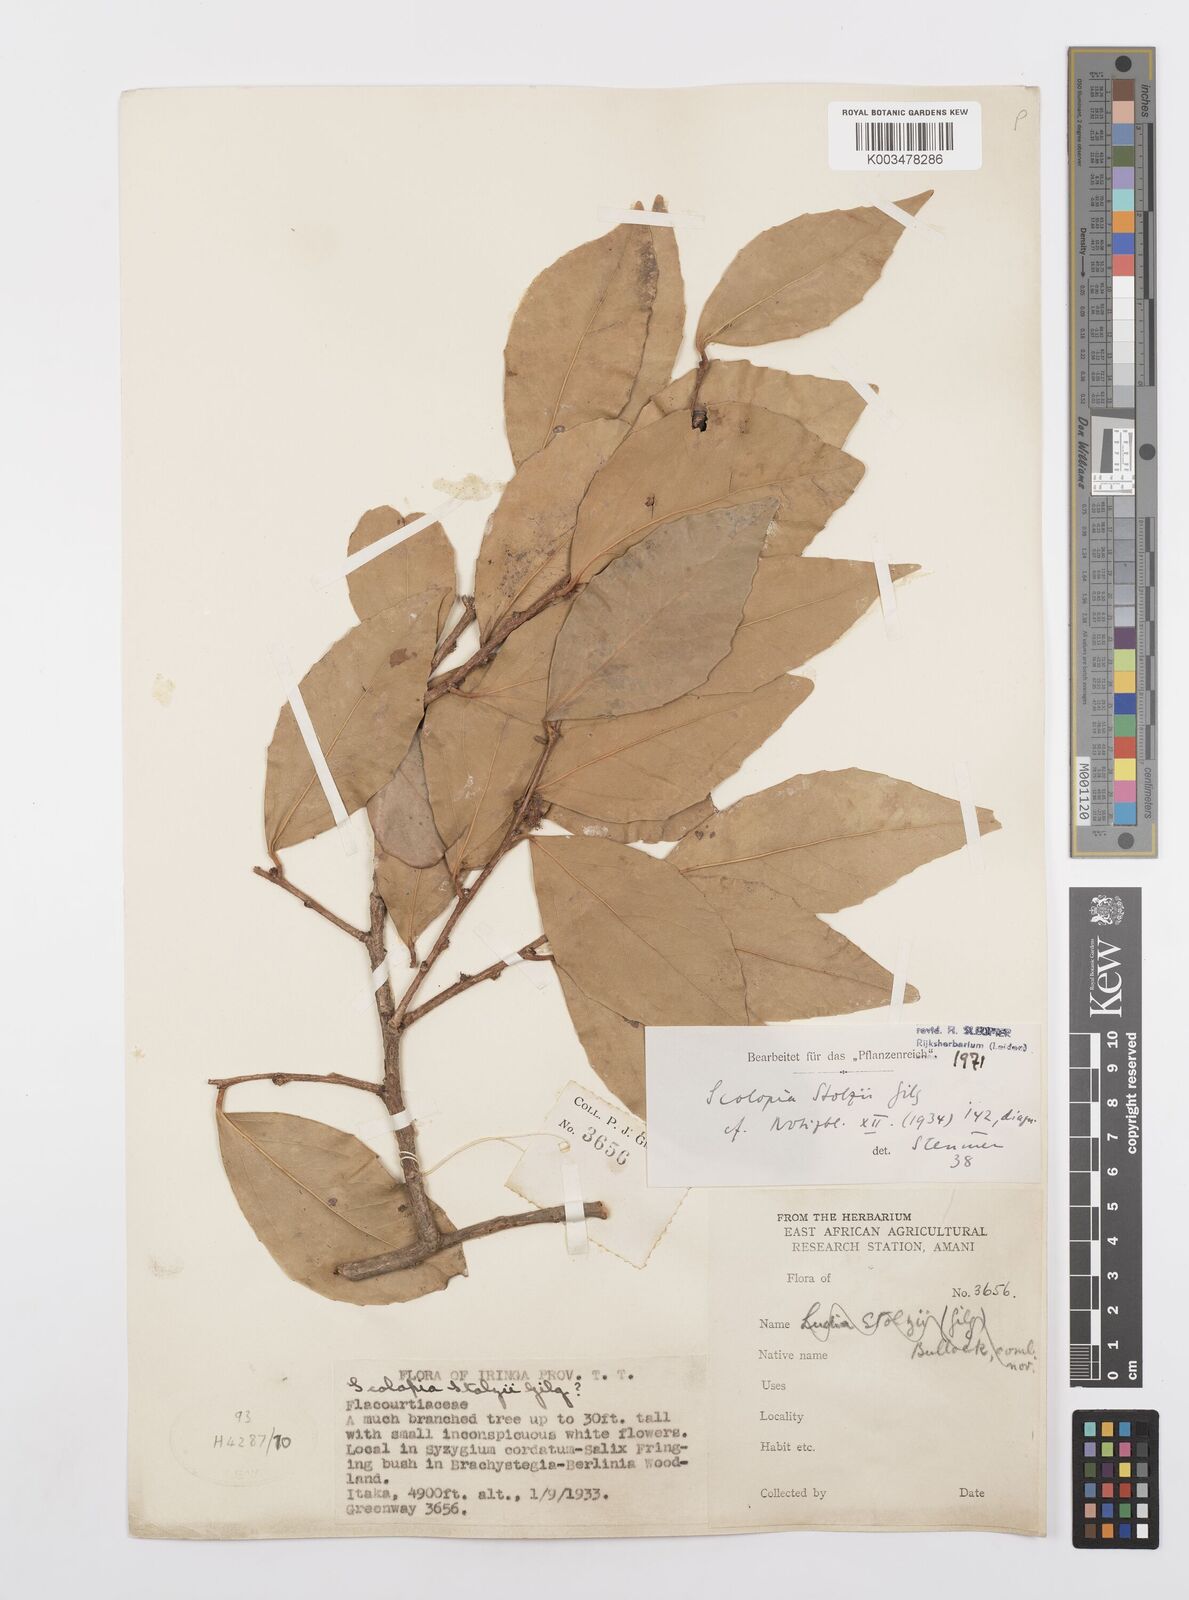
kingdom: Plantae
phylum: Tracheophyta
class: Magnoliopsida
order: Malpighiales
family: Salicaceae
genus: Scolopia
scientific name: Scolopia stolzii
